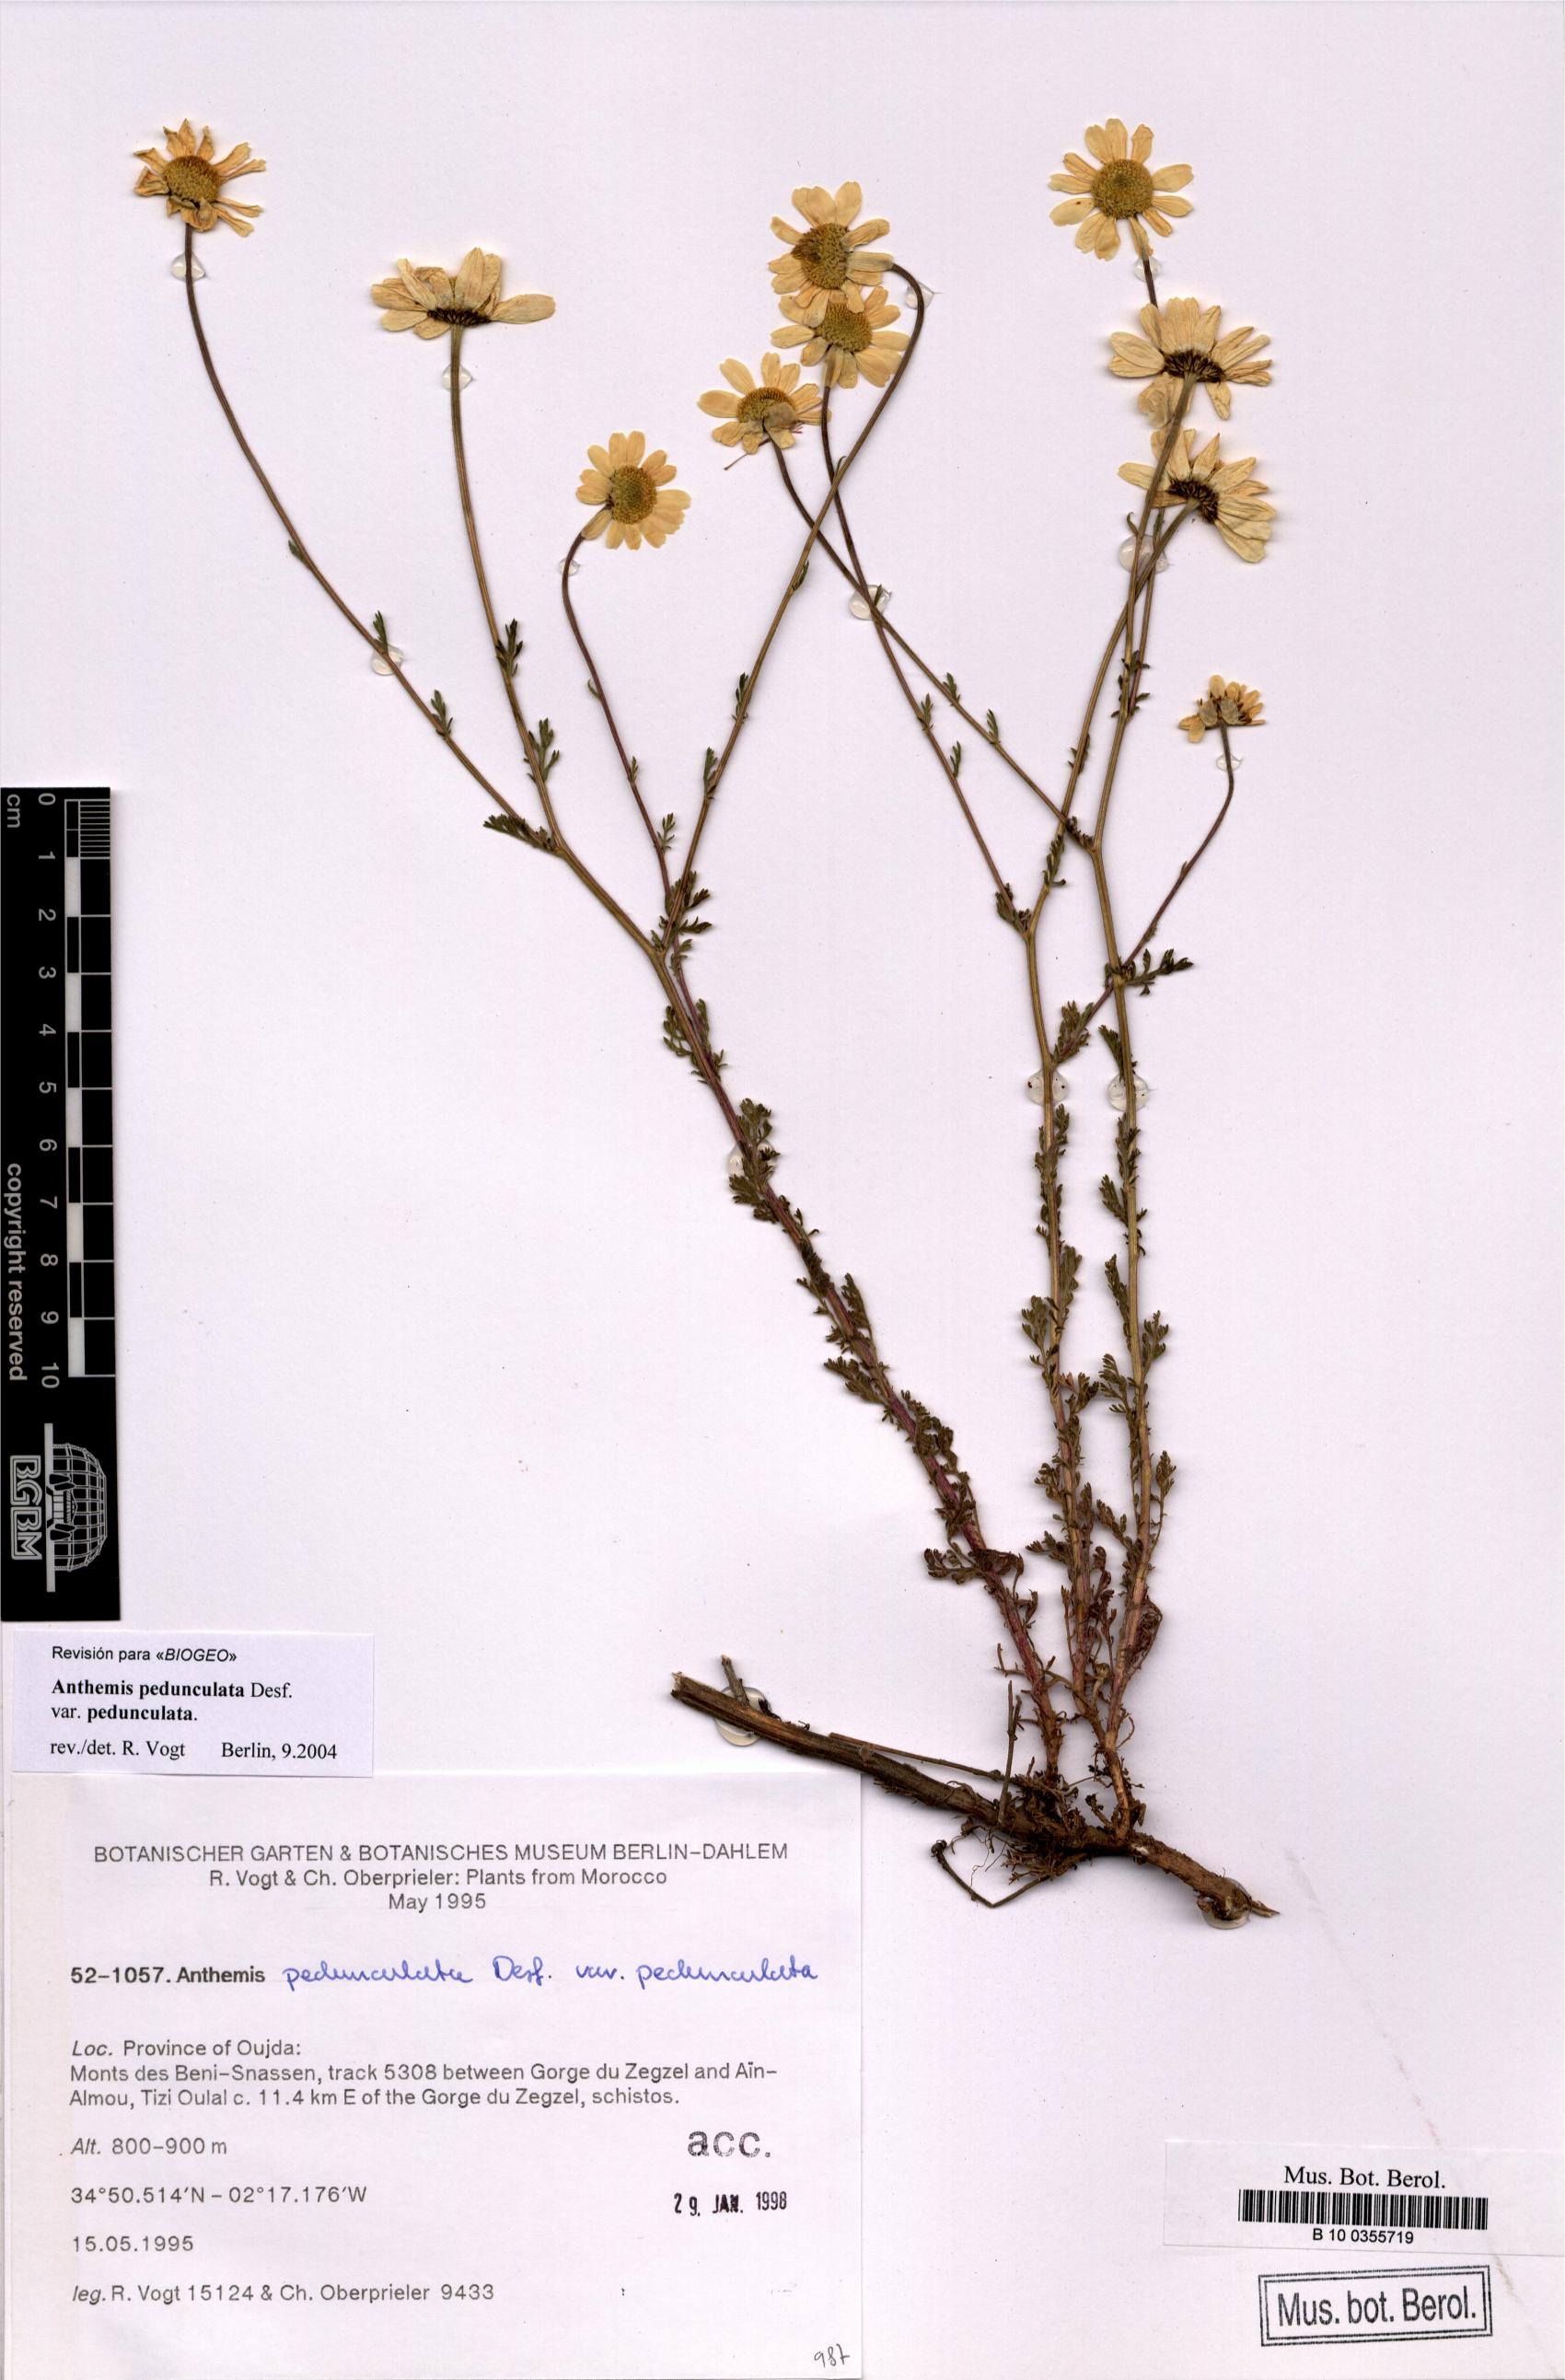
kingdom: Plantae
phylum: Tracheophyta
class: Magnoliopsida
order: Asterales
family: Asteraceae
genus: Anthemis
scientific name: Anthemis pedunculata
